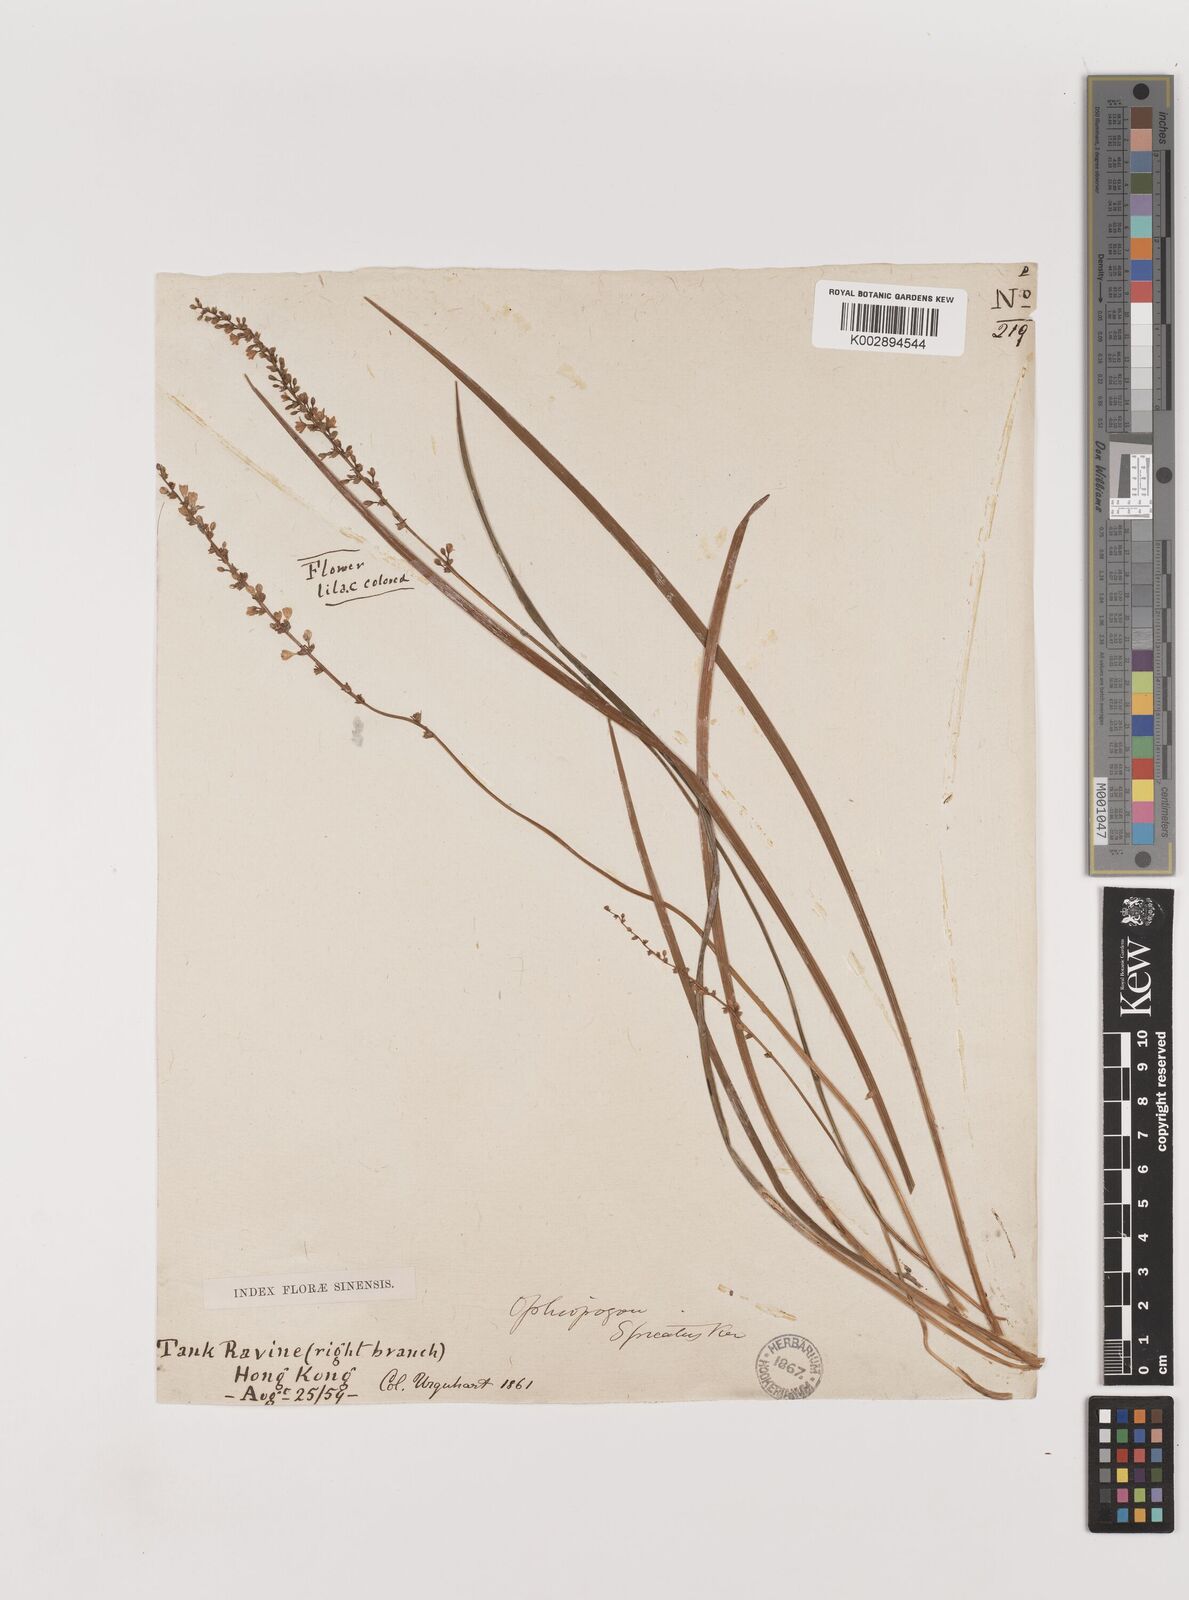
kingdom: Plantae
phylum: Tracheophyta
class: Liliopsida
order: Asparagales
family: Asparagaceae
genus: Liriope
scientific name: Liriope spicata
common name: Creeping liriope
